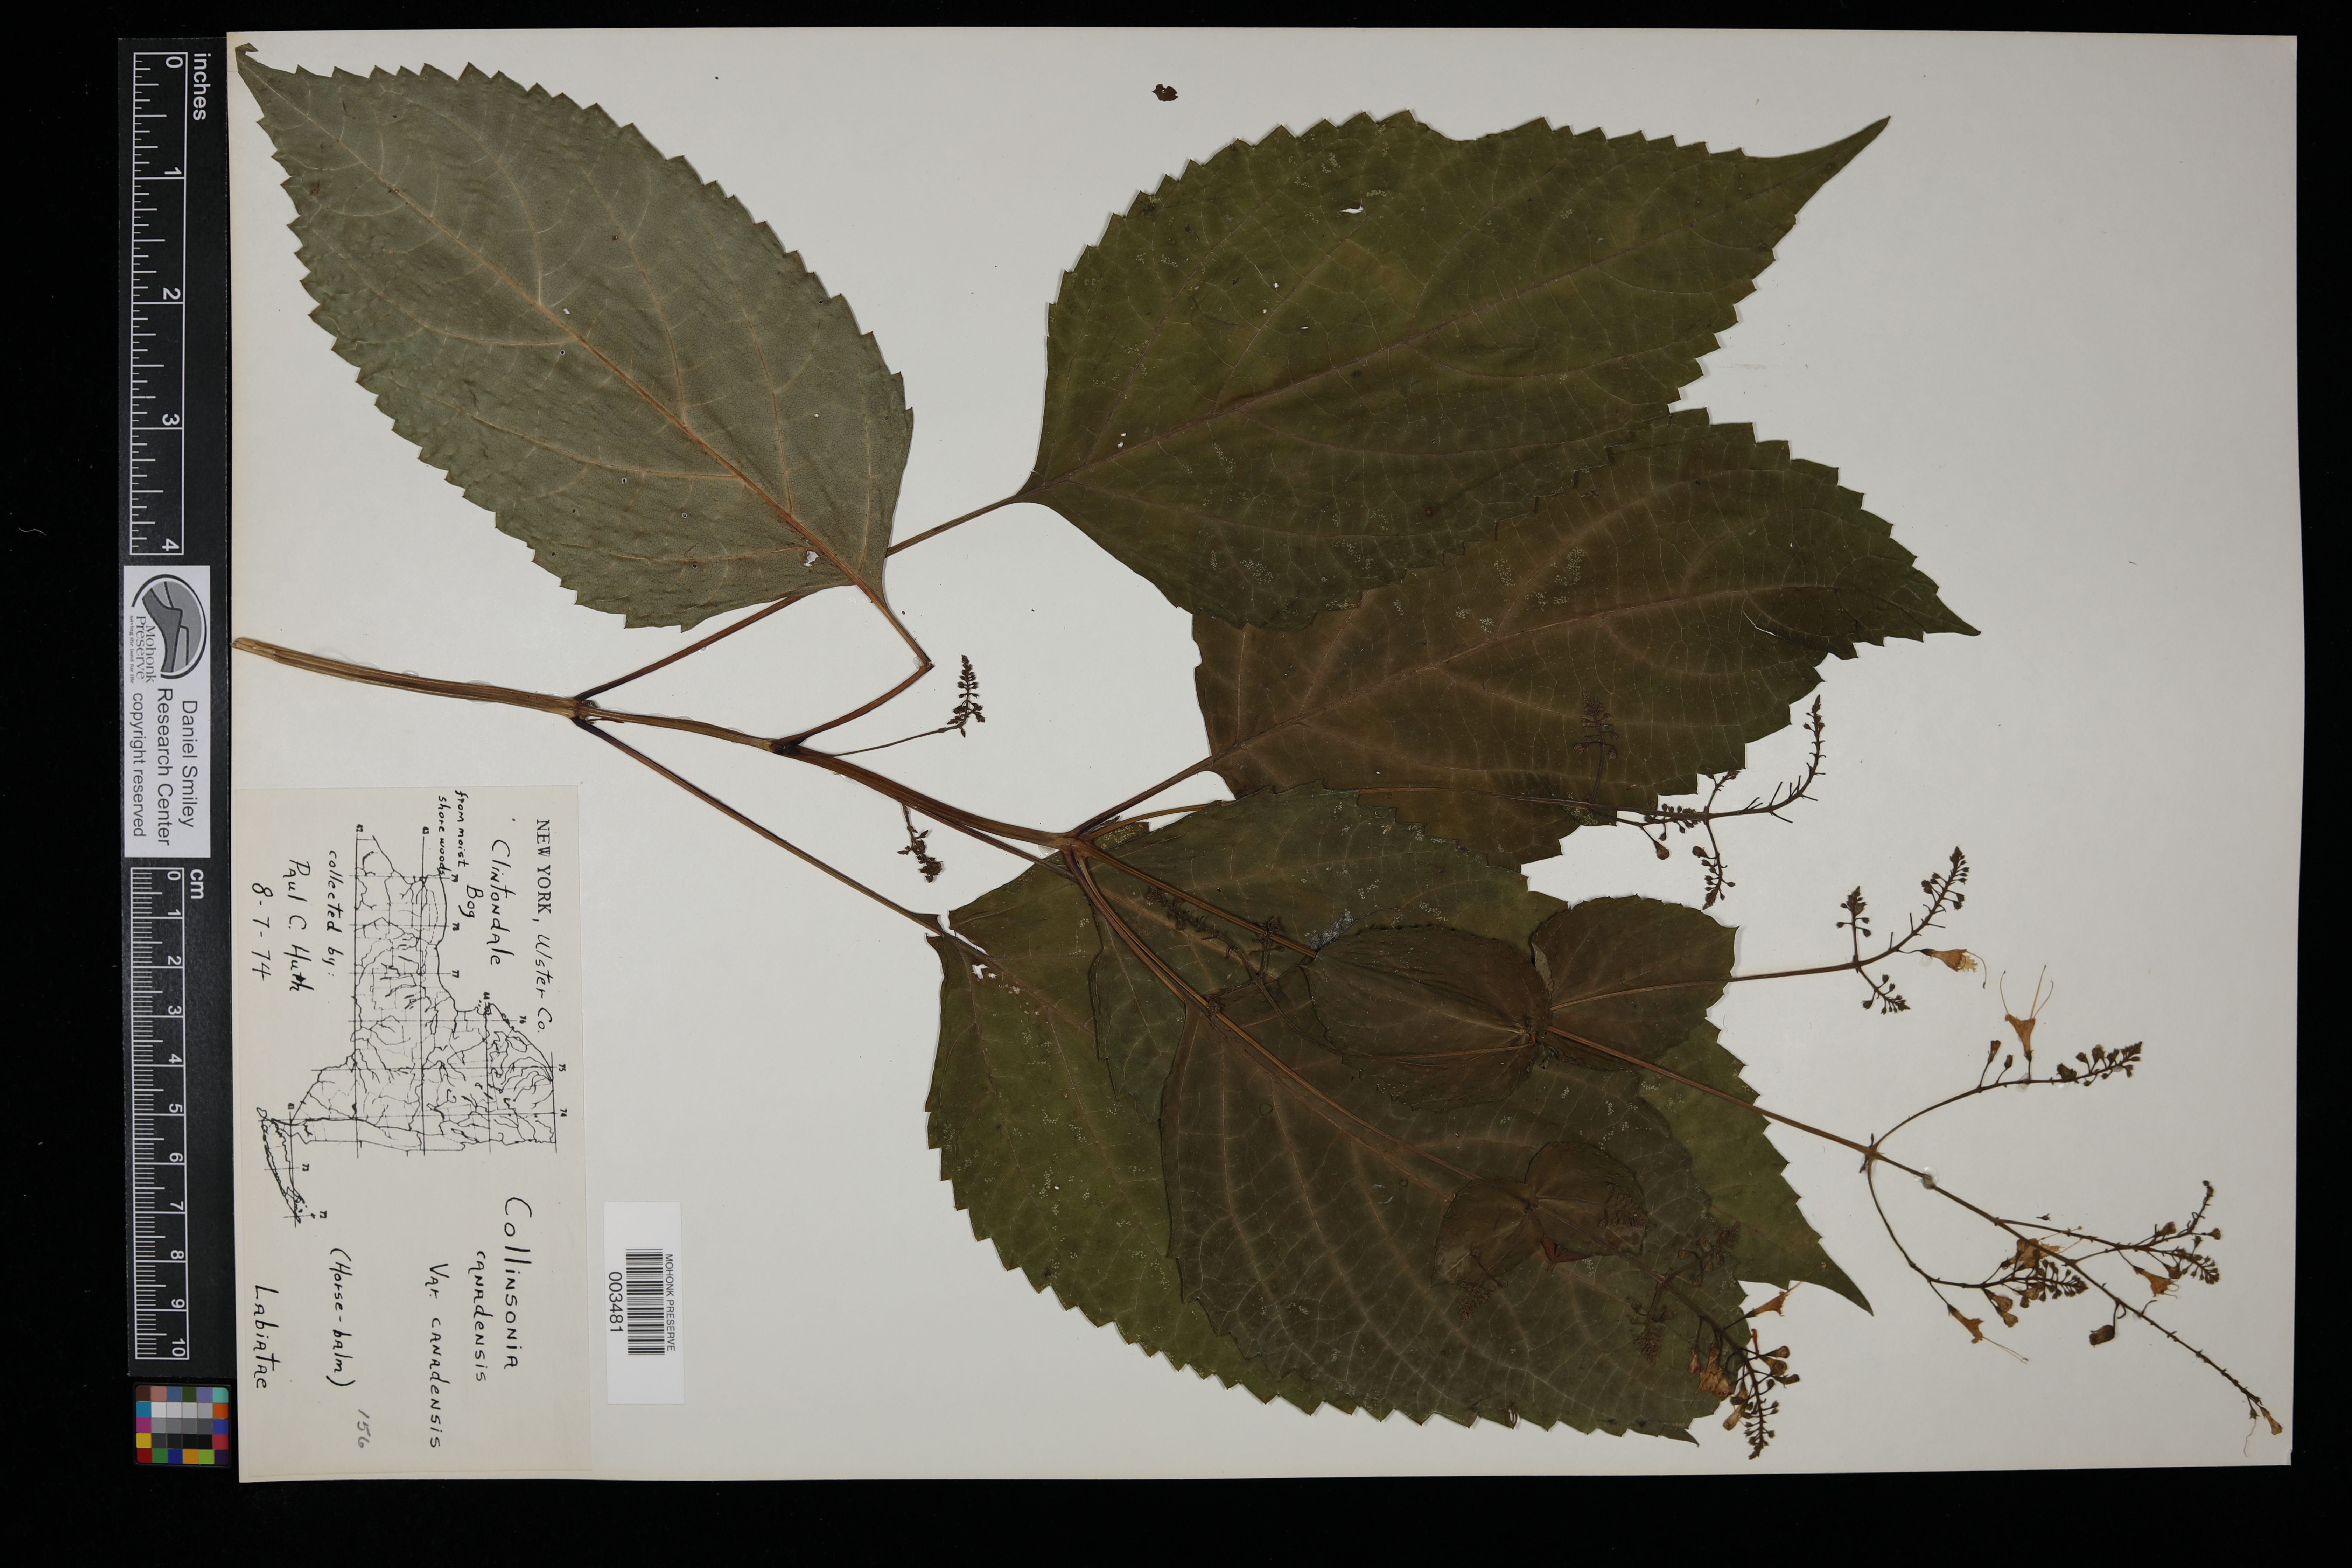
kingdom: Plantae
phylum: Tracheophyta
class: Magnoliopsida
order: Lamiales
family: Lamiaceae
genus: Collinsonia
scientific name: Collinsonia canadensis
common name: Northern horsebalm
